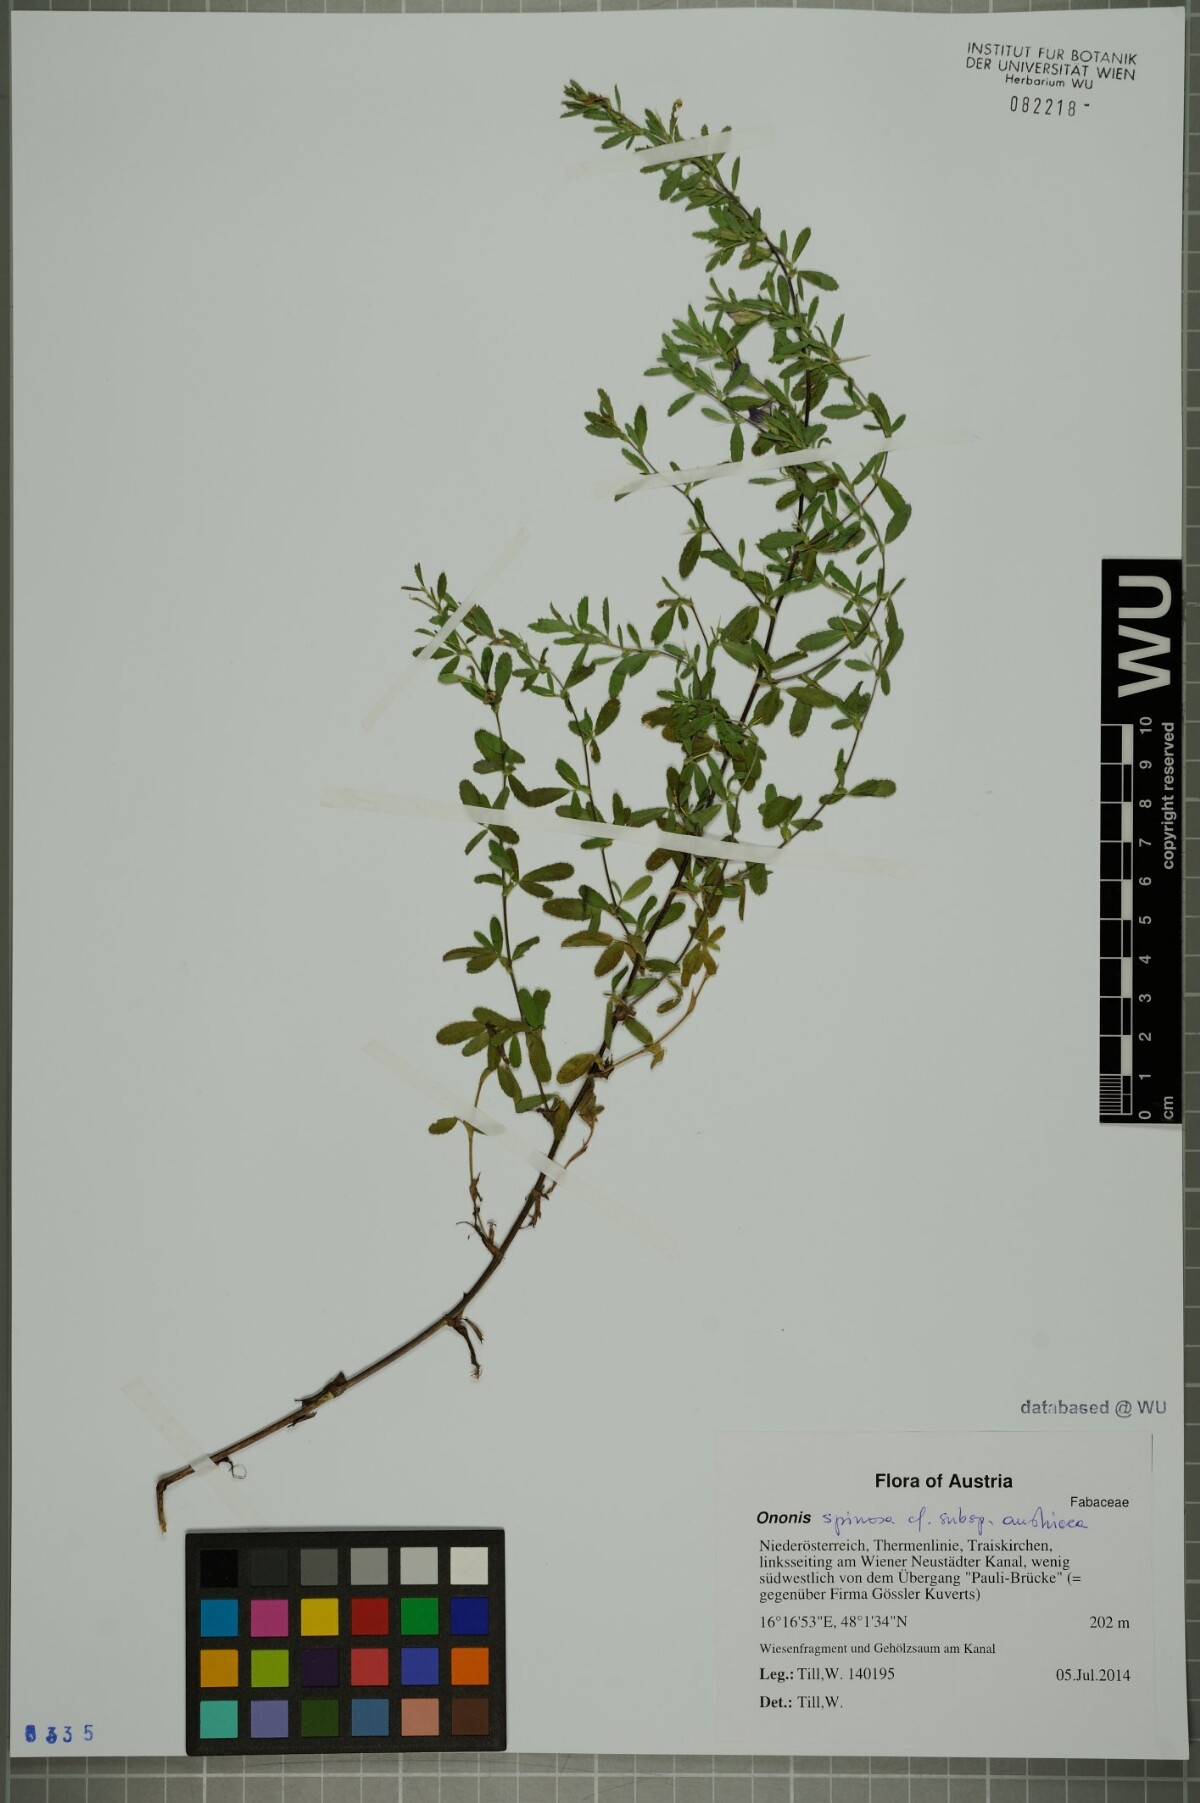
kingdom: Plantae
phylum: Tracheophyta
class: Magnoliopsida
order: Fabales
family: Fabaceae
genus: Ononis
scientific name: Ononis spinosa
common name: Spiny restharrow
